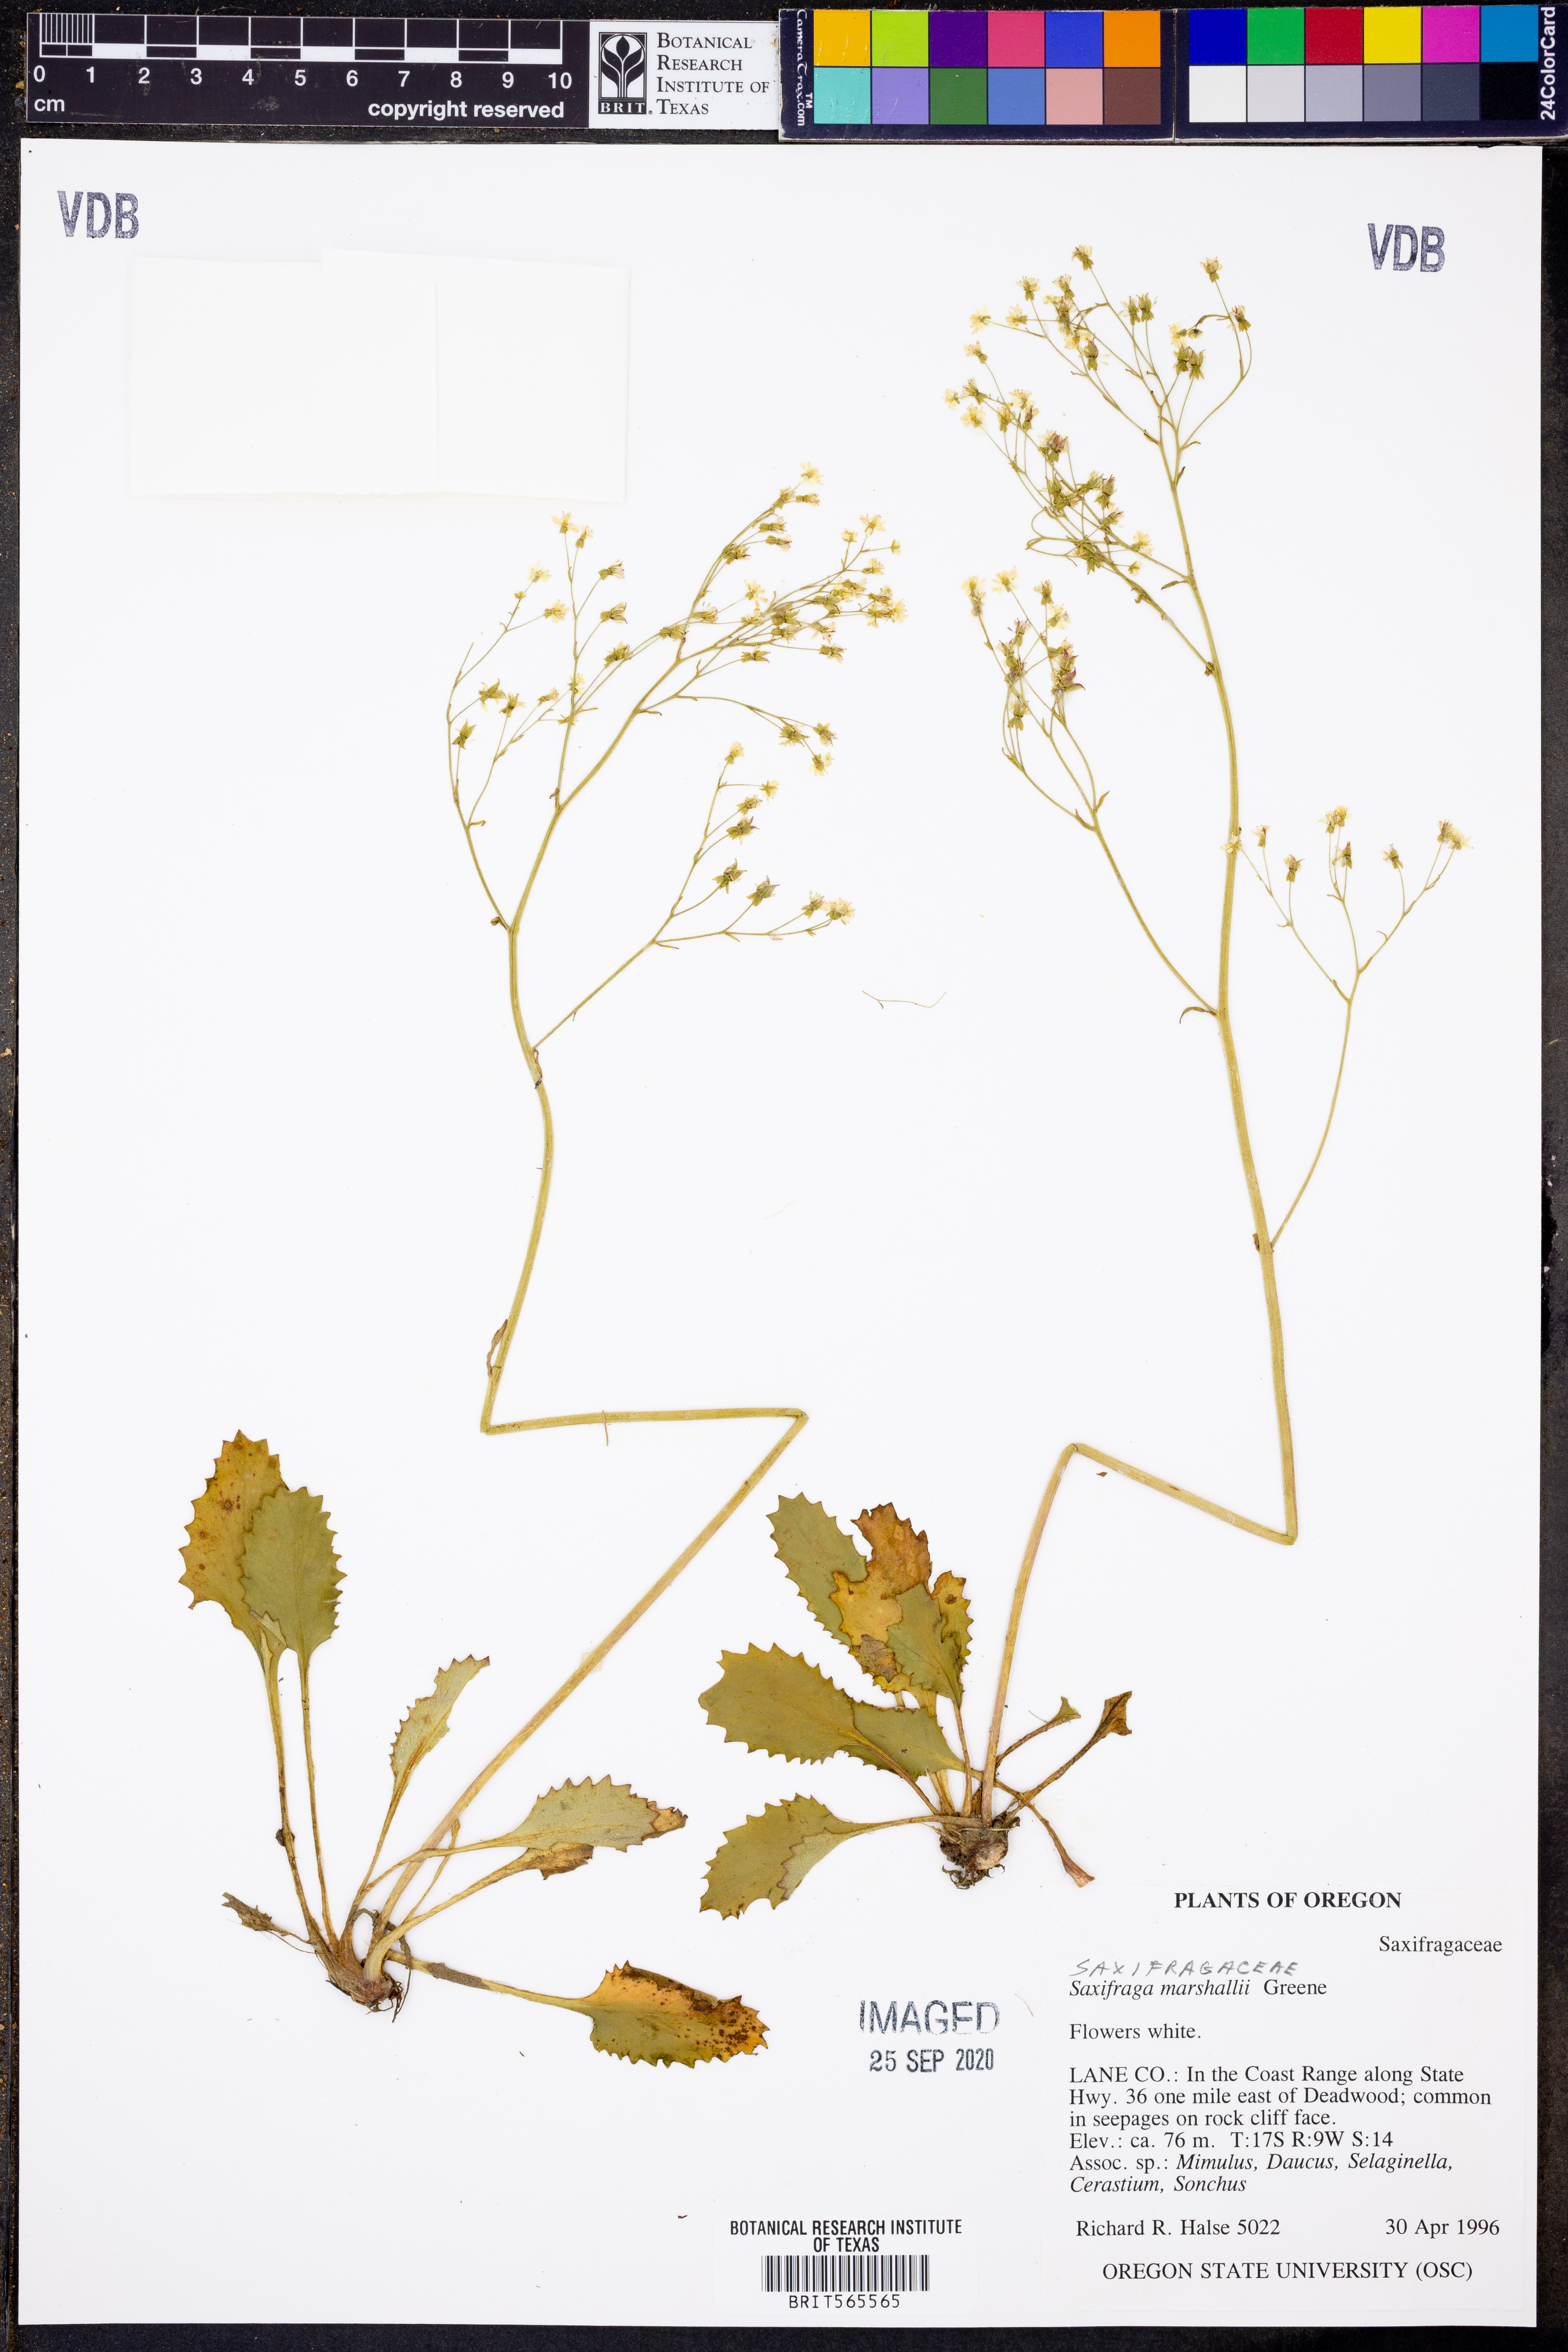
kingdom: Plantae
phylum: Tracheophyta
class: Magnoliopsida
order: Saxifragales
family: Saxifragaceae
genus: Micranthes
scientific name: Micranthes marshallii
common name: Marshall's saxifrage
